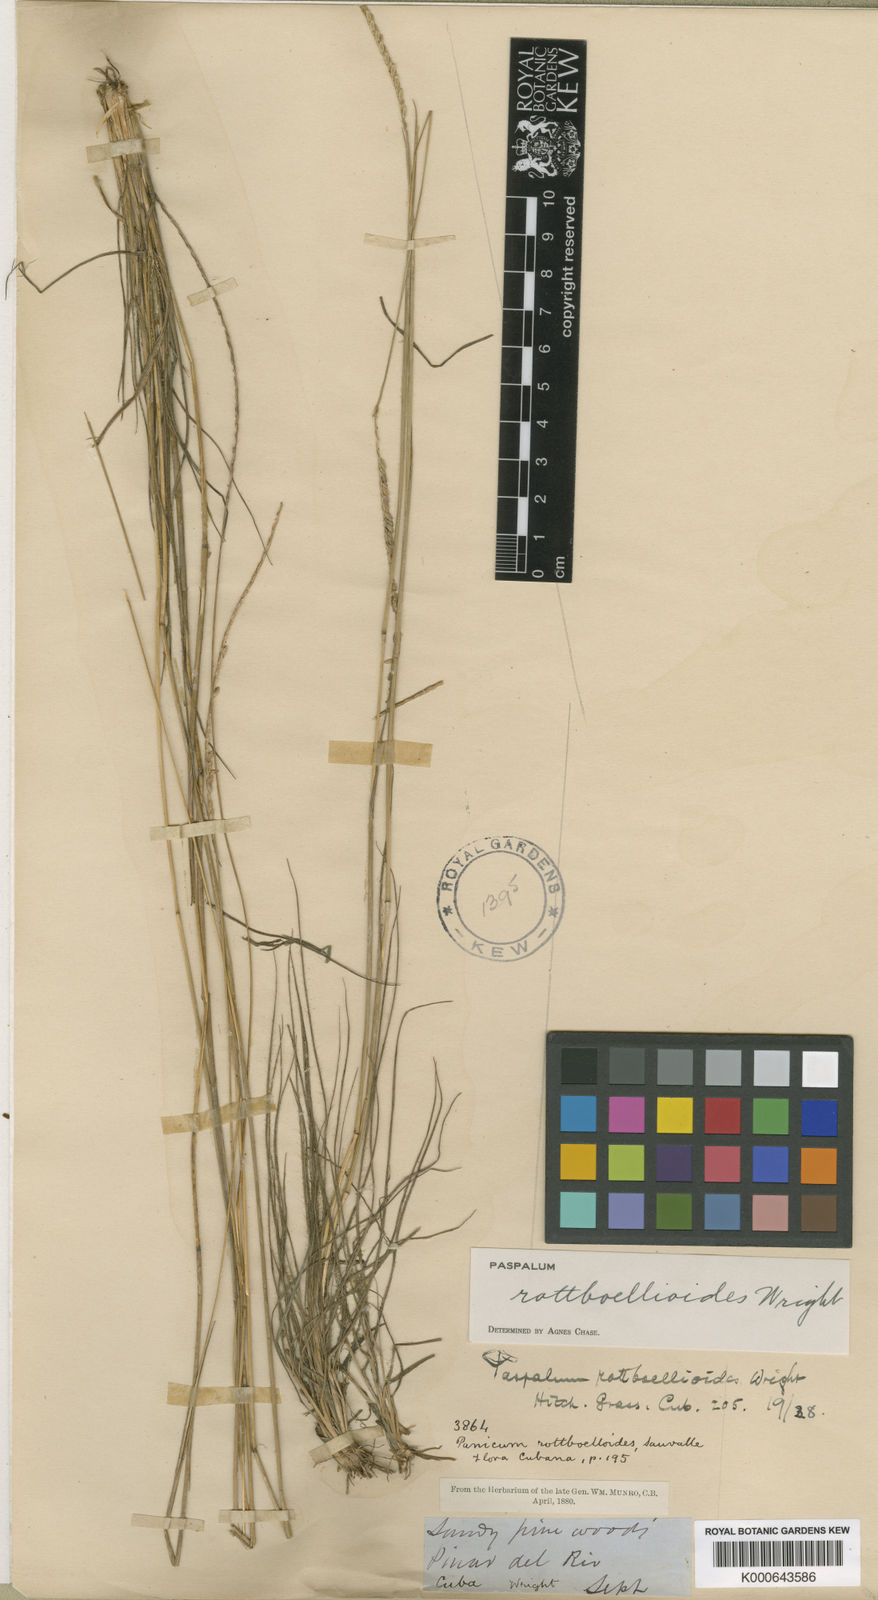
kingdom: Plantae
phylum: Tracheophyta
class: Liliopsida
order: Poales
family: Poaceae
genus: Paspalum
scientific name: Paspalum rottboellioides
